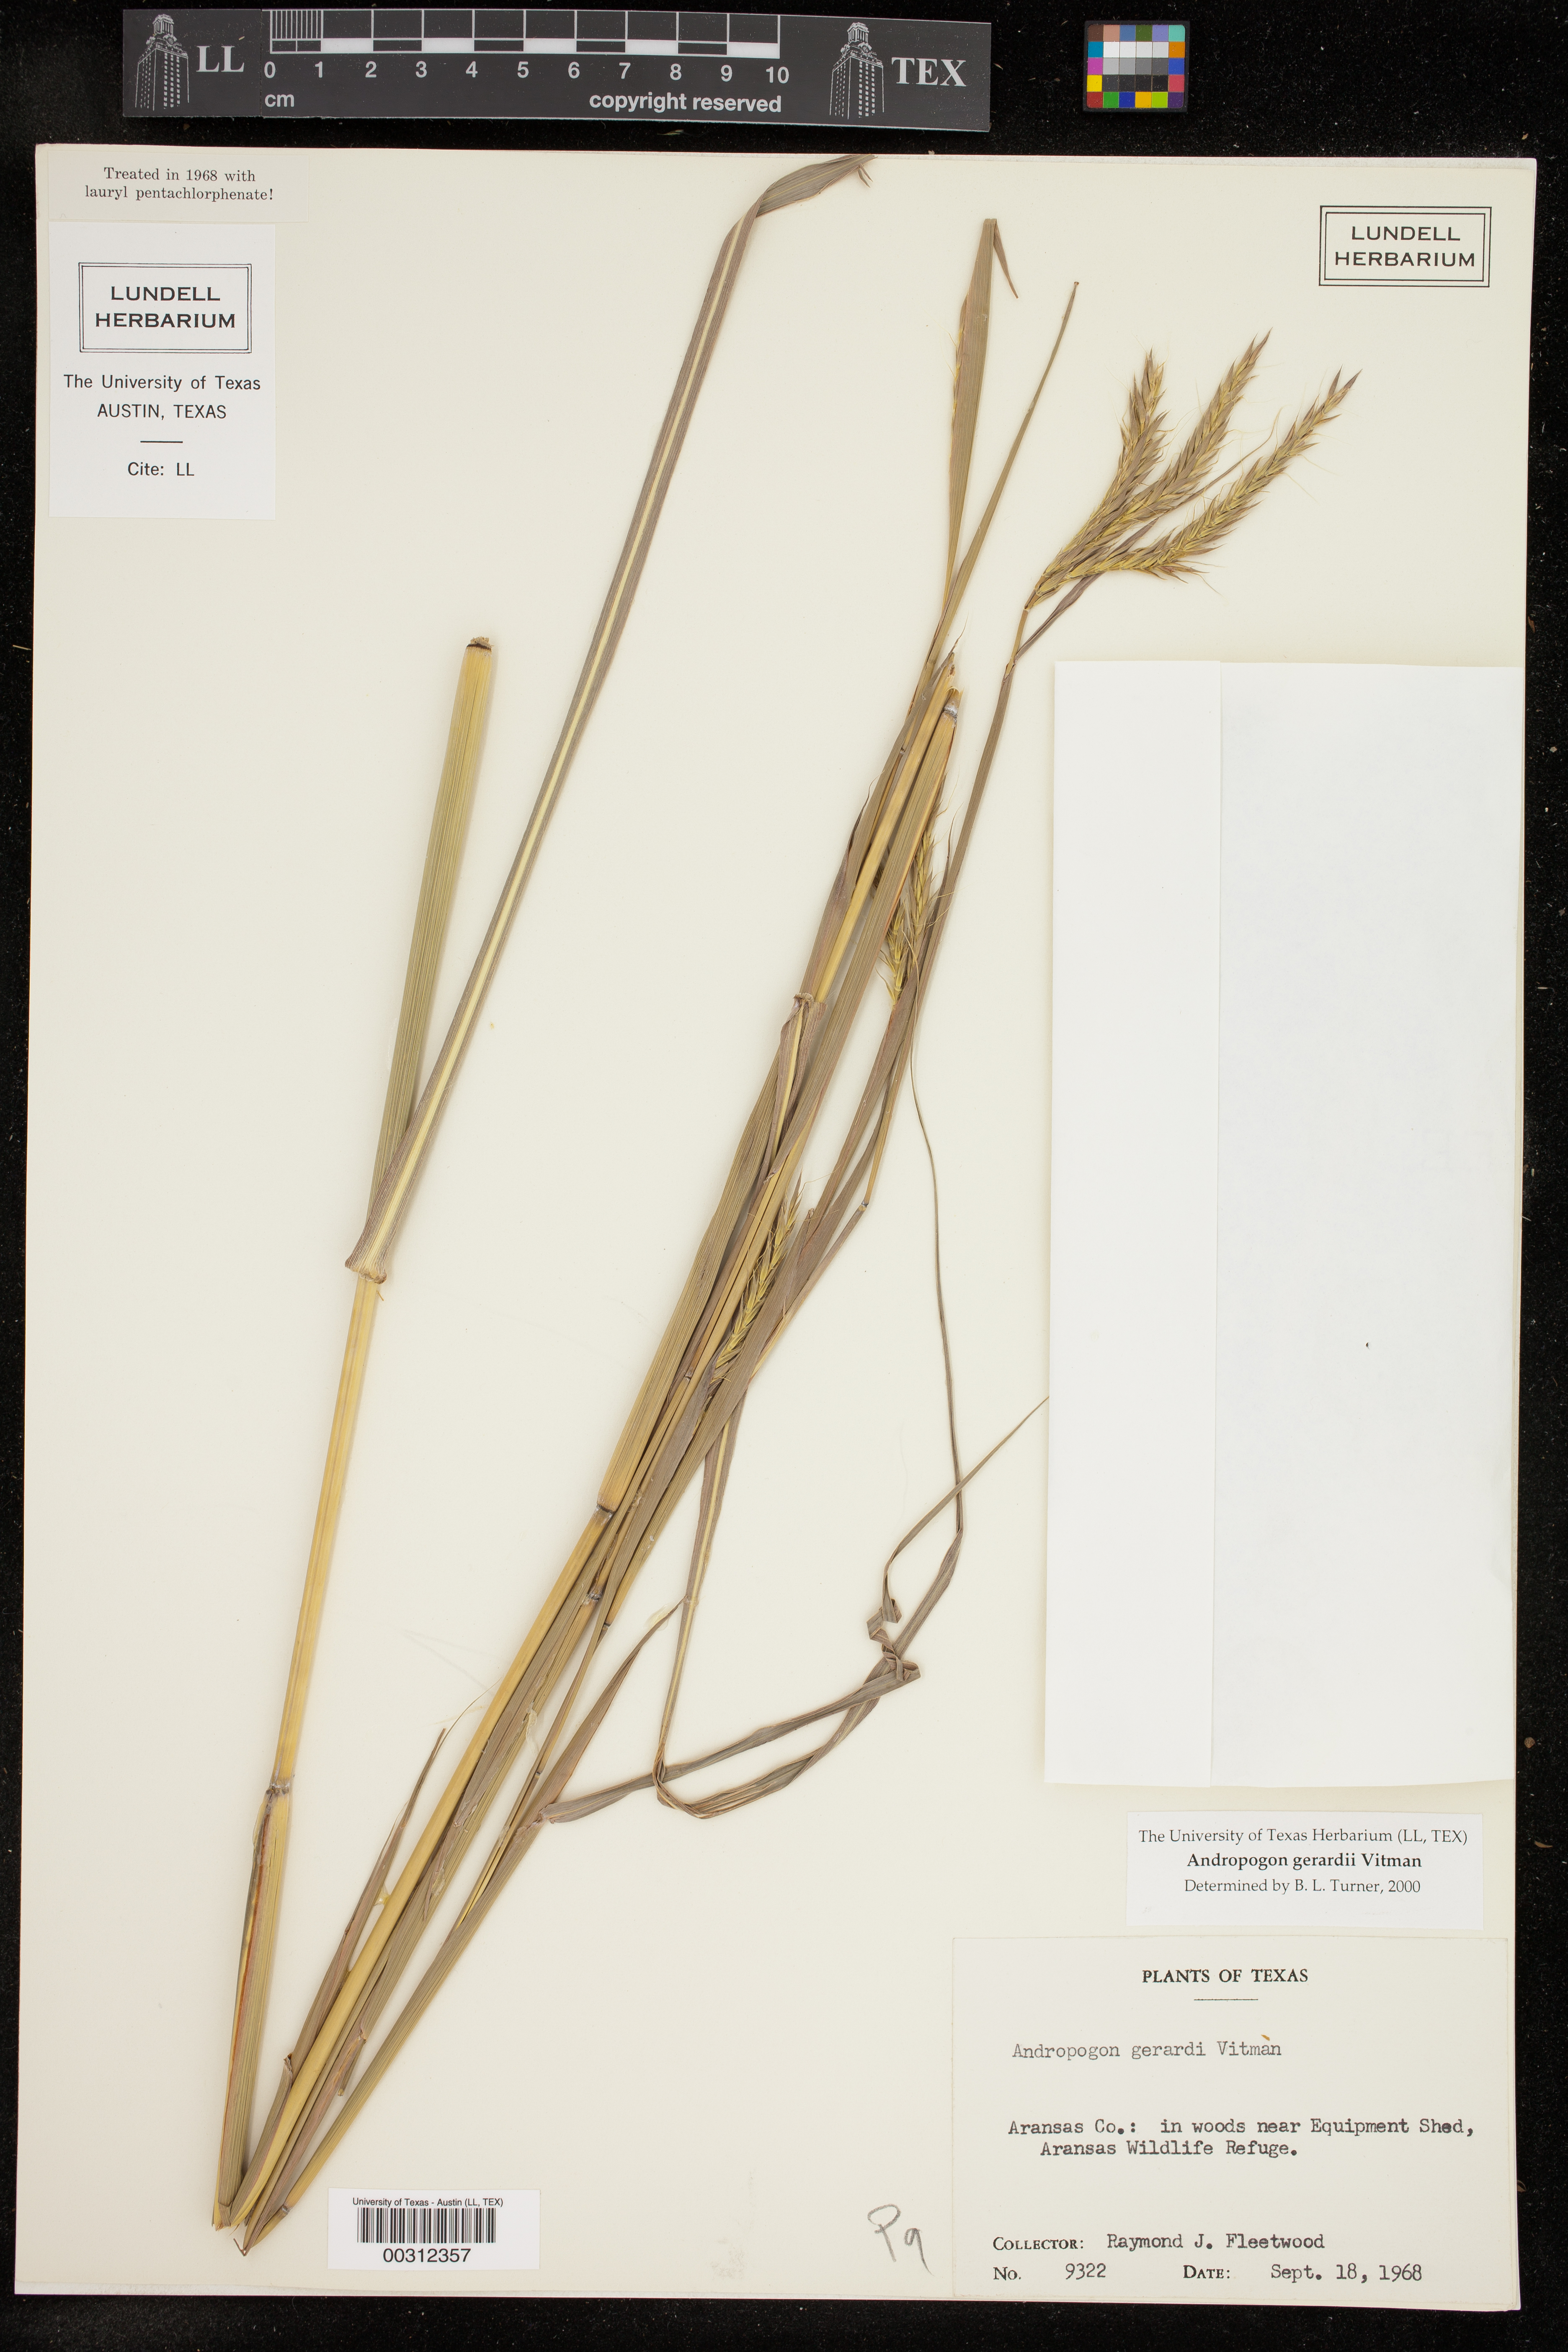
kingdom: Plantae
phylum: Tracheophyta
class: Liliopsida
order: Poales
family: Poaceae
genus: Andropogon
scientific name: Andropogon gerardi
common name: Big bluestem
